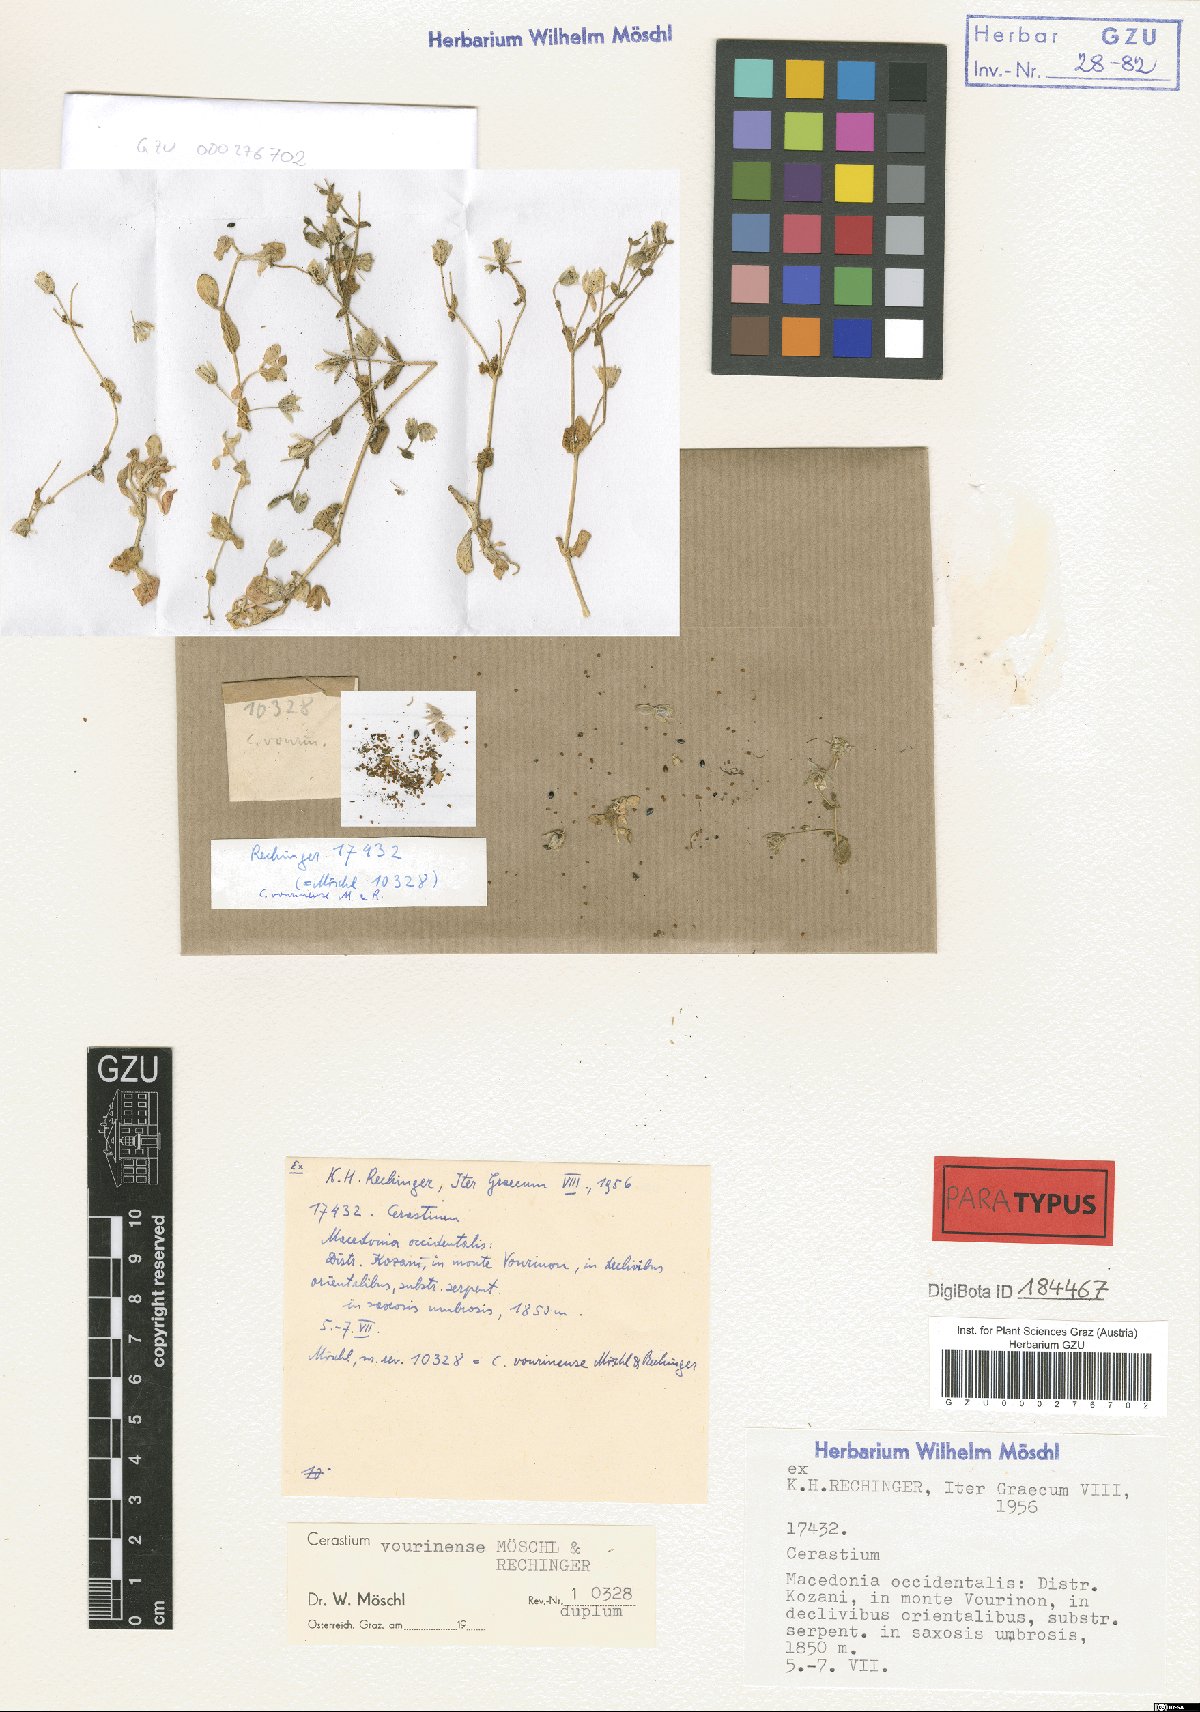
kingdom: Plantae
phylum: Tracheophyta
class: Magnoliopsida
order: Caryophyllales
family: Caryophyllaceae
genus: Cerastium
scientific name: Cerastium vourinense
